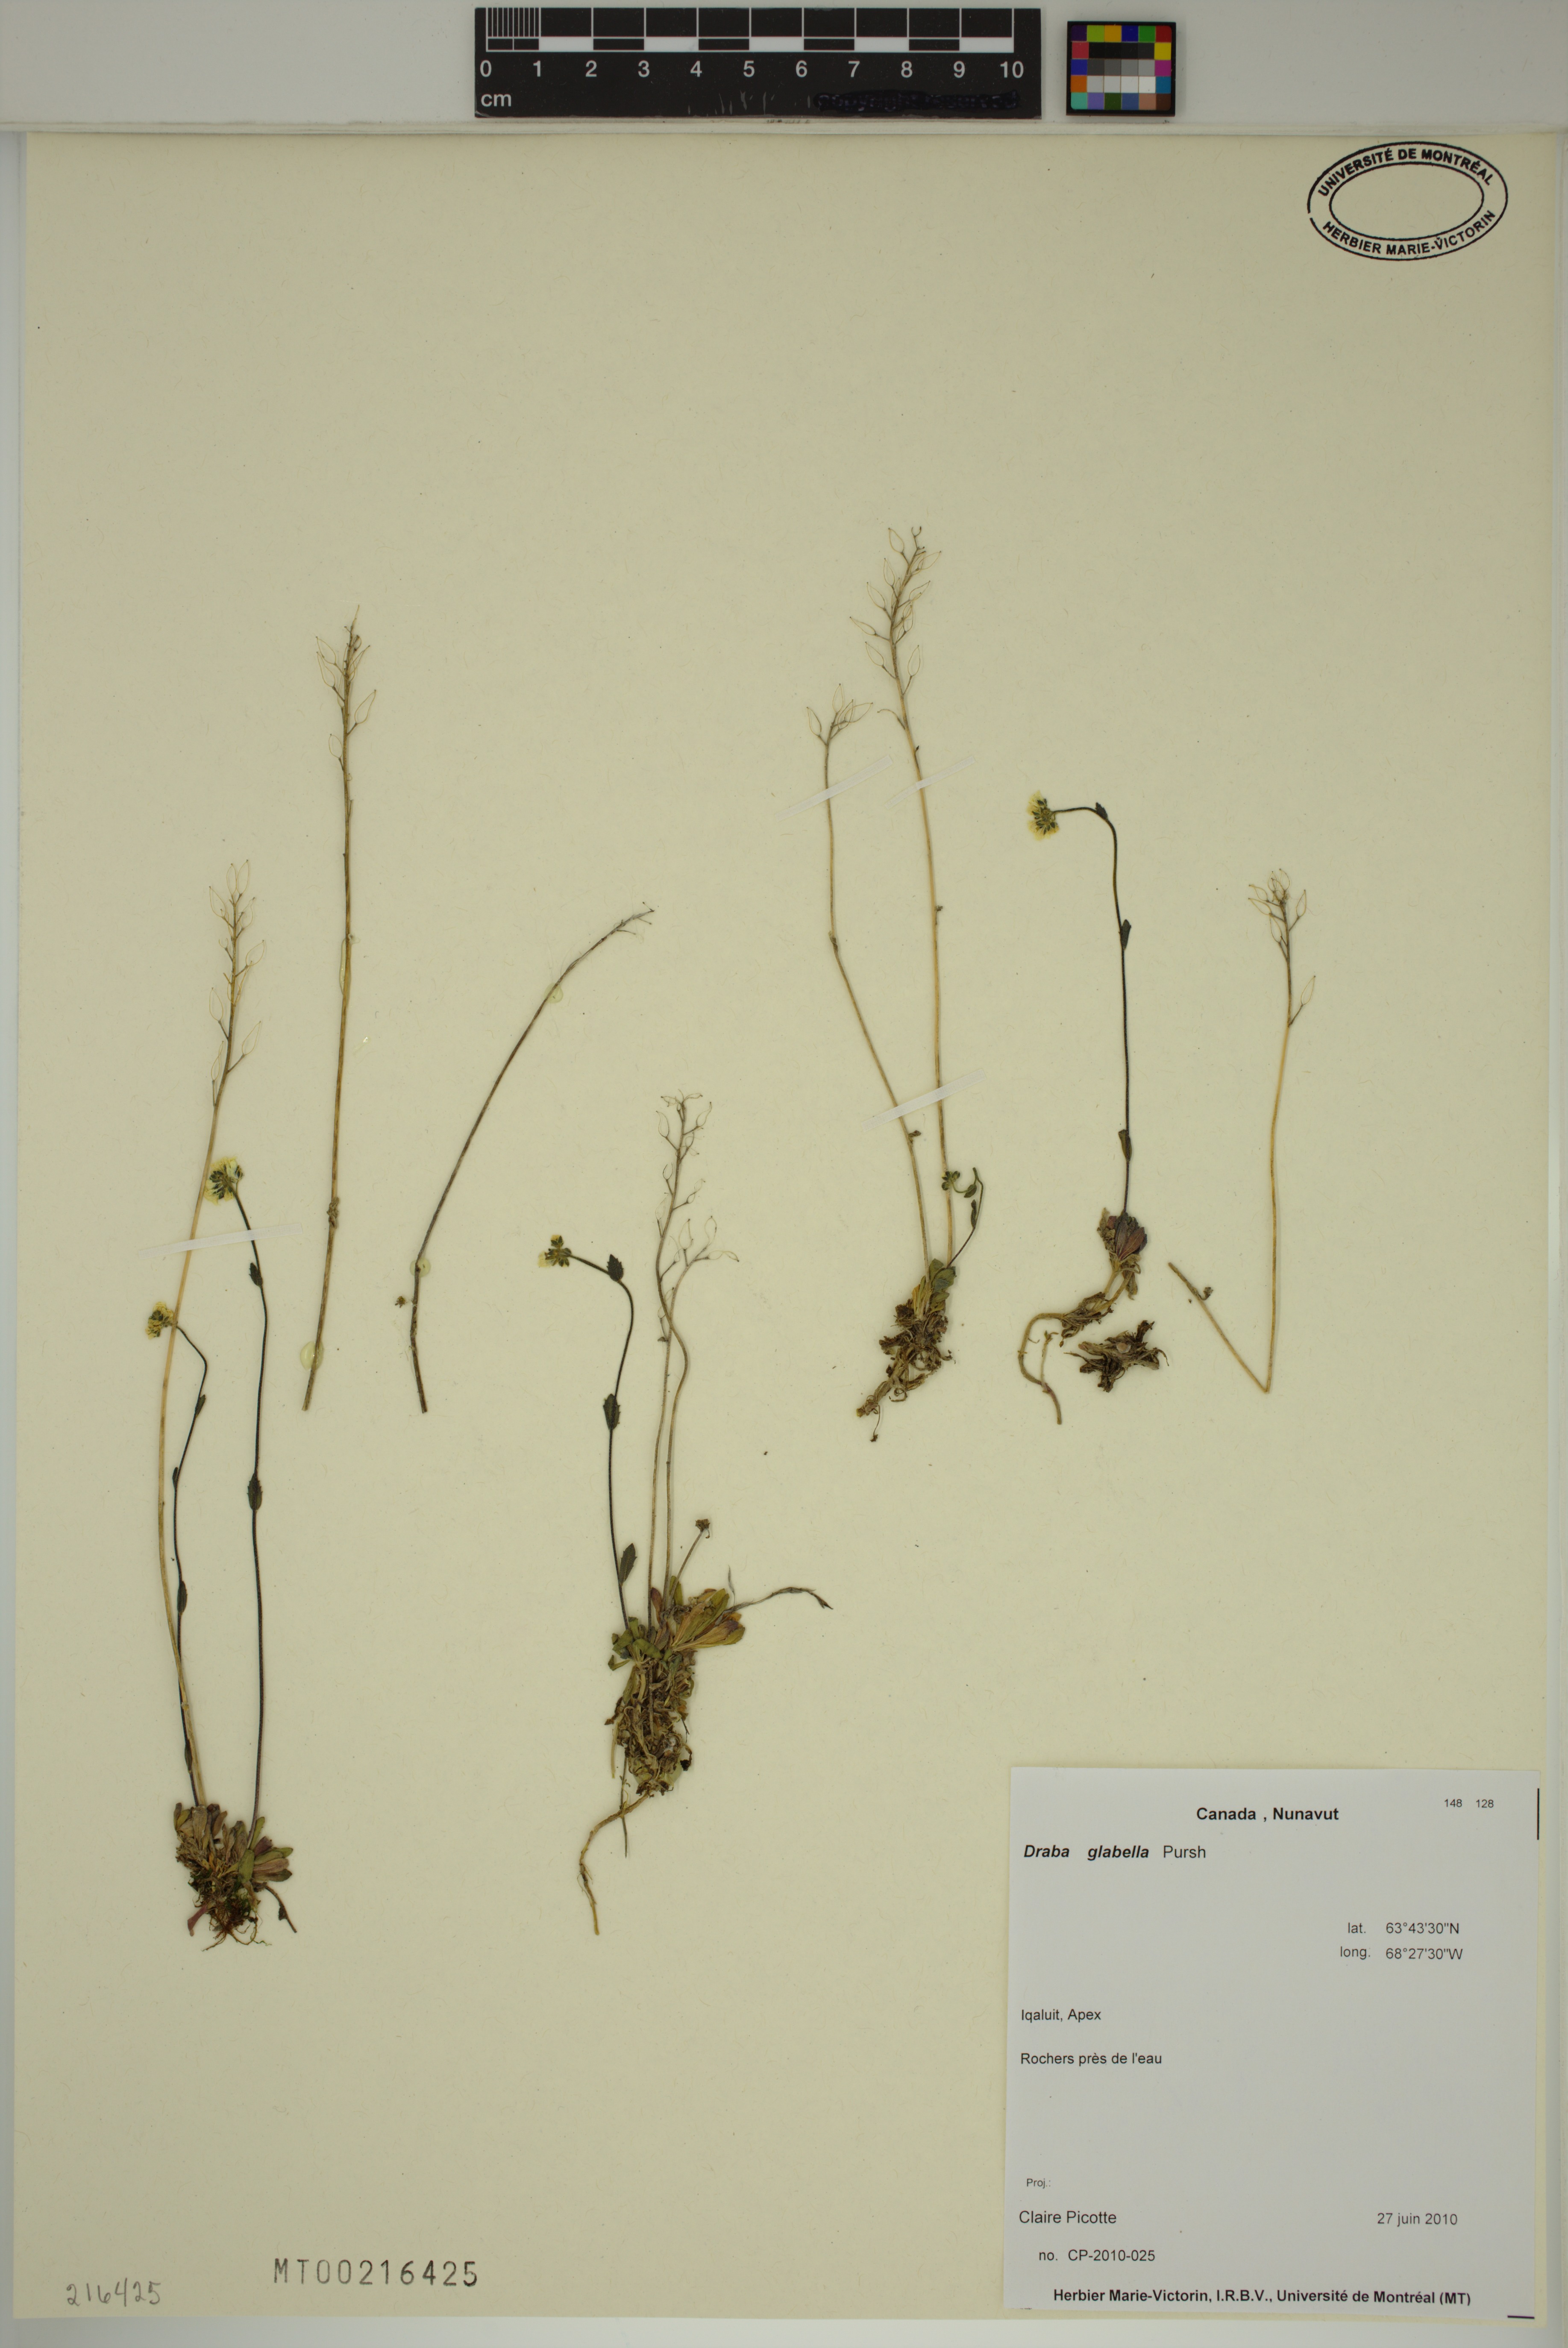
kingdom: Plantae
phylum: Tracheophyta
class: Magnoliopsida
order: Brassicales
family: Brassicaceae
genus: Draba
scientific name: Draba glabella
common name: Glaucous draba
